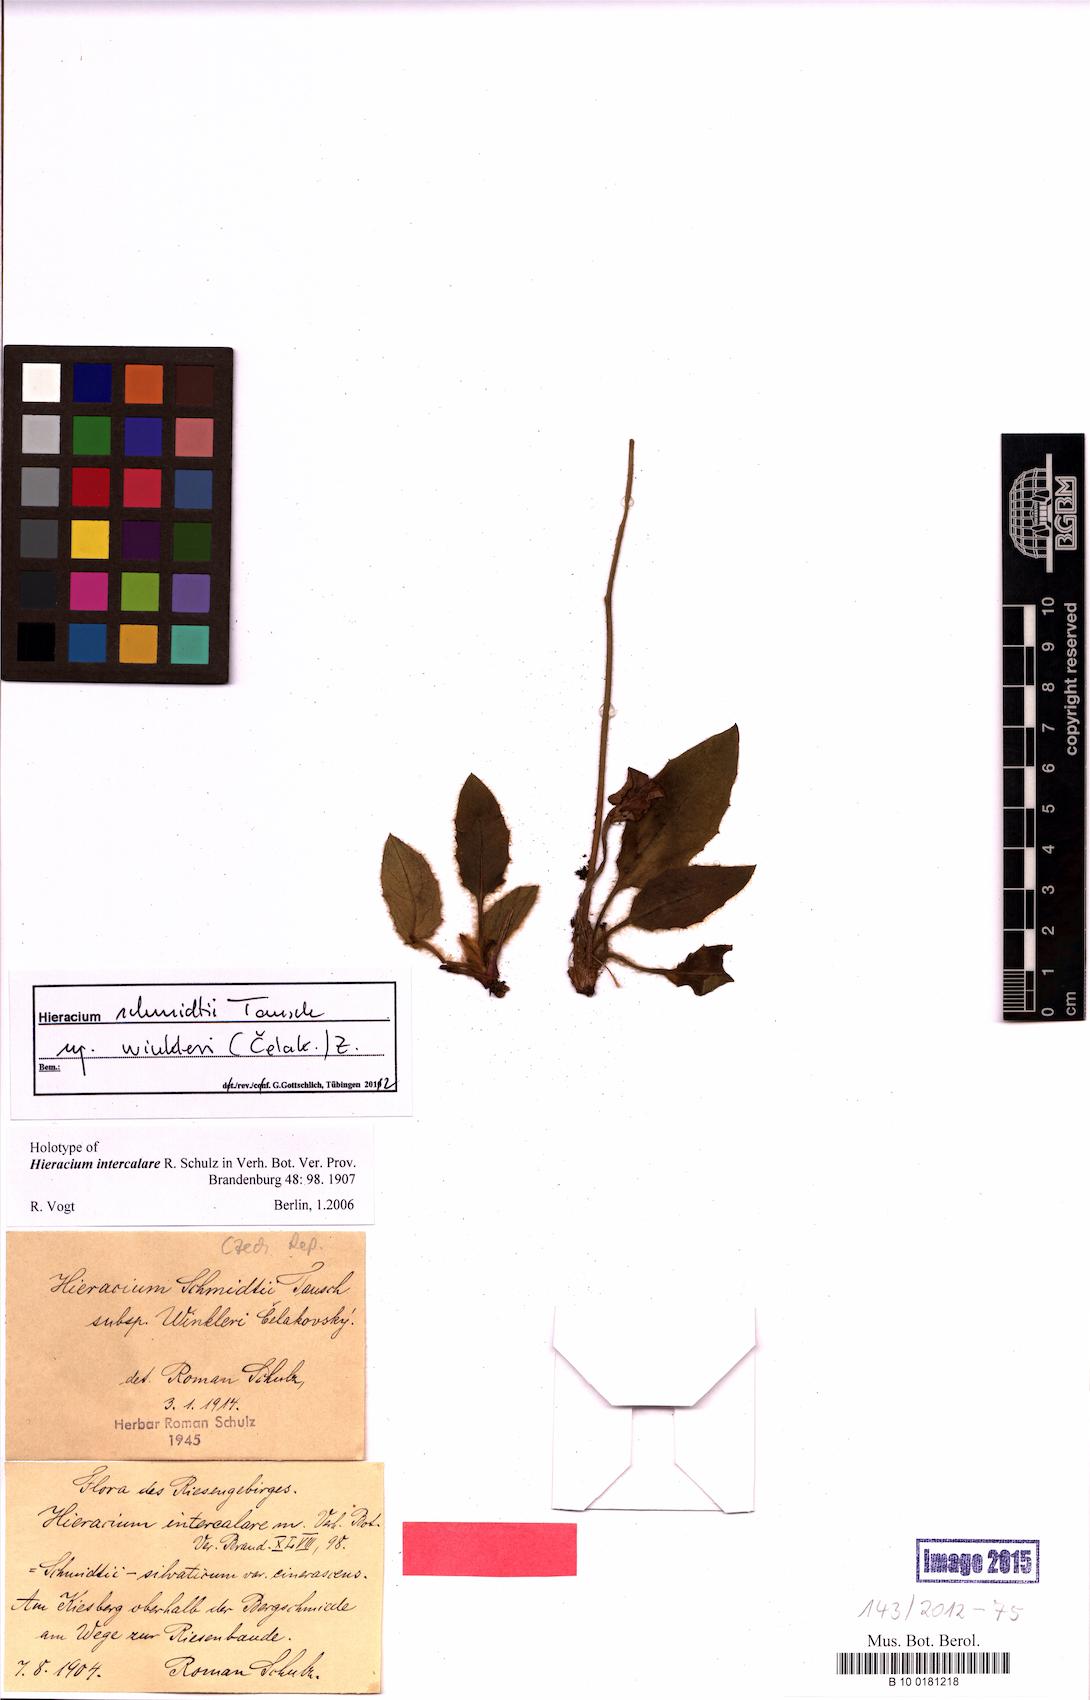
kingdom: Plantae
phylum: Tracheophyta
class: Magnoliopsida
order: Asterales
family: Asteraceae
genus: Hieracium
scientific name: Hieracium schmidtii
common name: Schmidt's hawkweed
